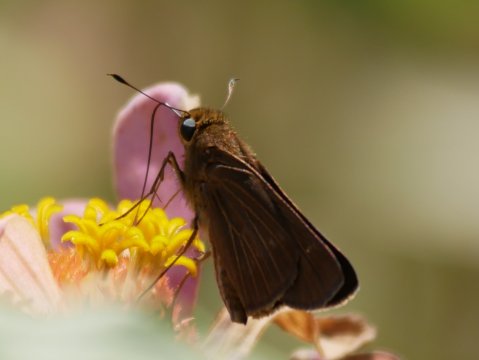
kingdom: Animalia
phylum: Arthropoda
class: Insecta
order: Lepidoptera
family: Hesperiidae
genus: Panoquina
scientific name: Panoquina ocola
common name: Ocola Skipper
